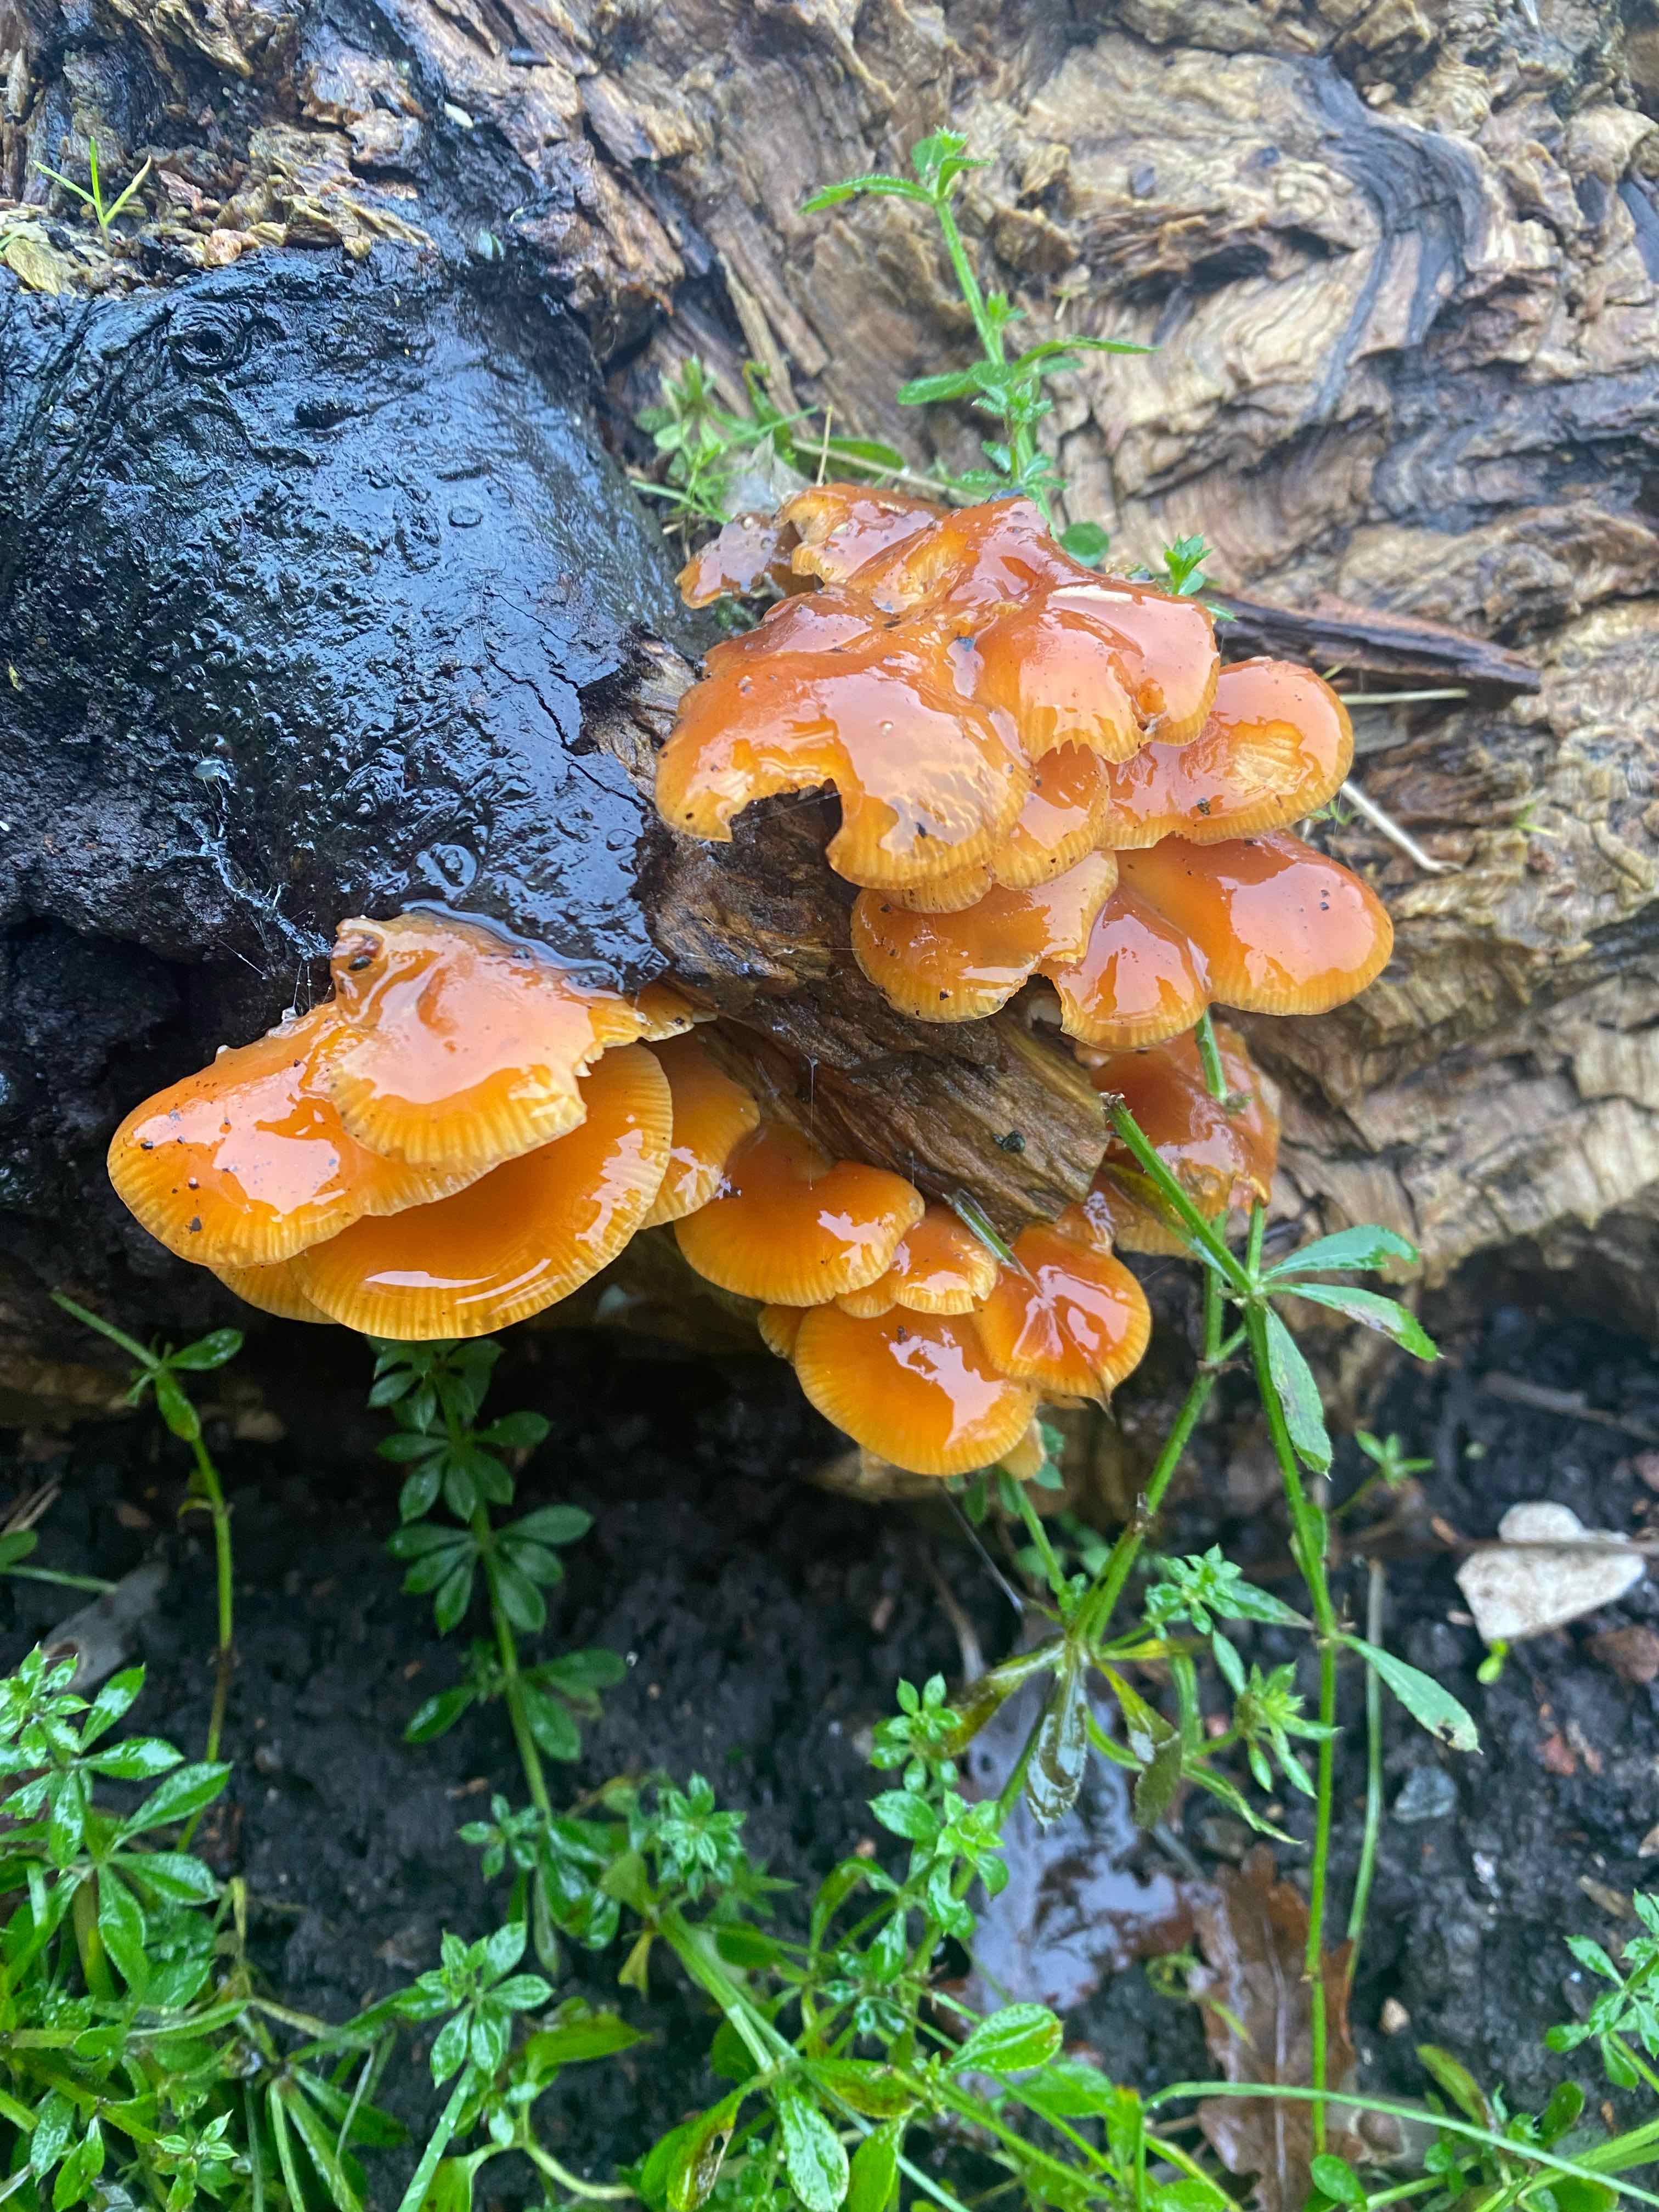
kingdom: Fungi
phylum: Basidiomycota
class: Agaricomycetes
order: Agaricales
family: Physalacriaceae
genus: Flammulina
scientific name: Flammulina velutipes
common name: gul fløjlsfod
